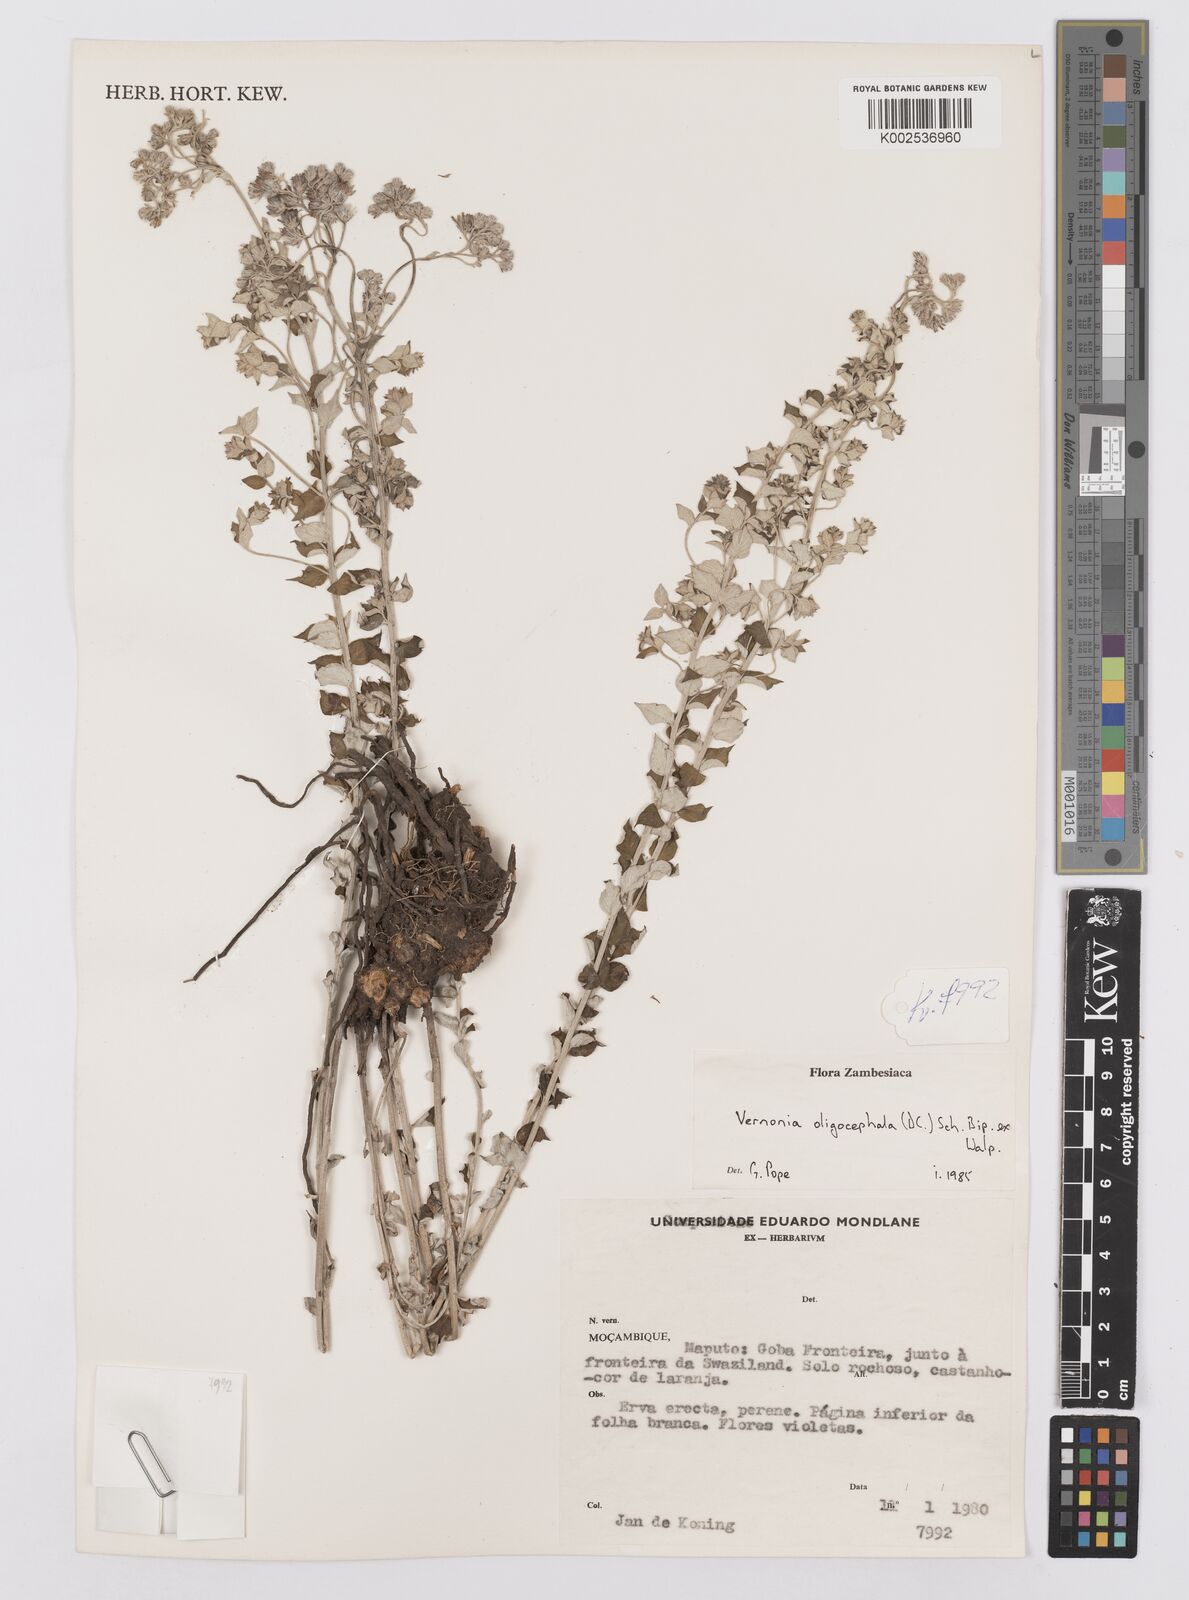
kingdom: Plantae
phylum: Tracheophyta
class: Magnoliopsida
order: Asterales
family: Asteraceae
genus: Hilliardiella
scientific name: Hilliardiella oligocephala
